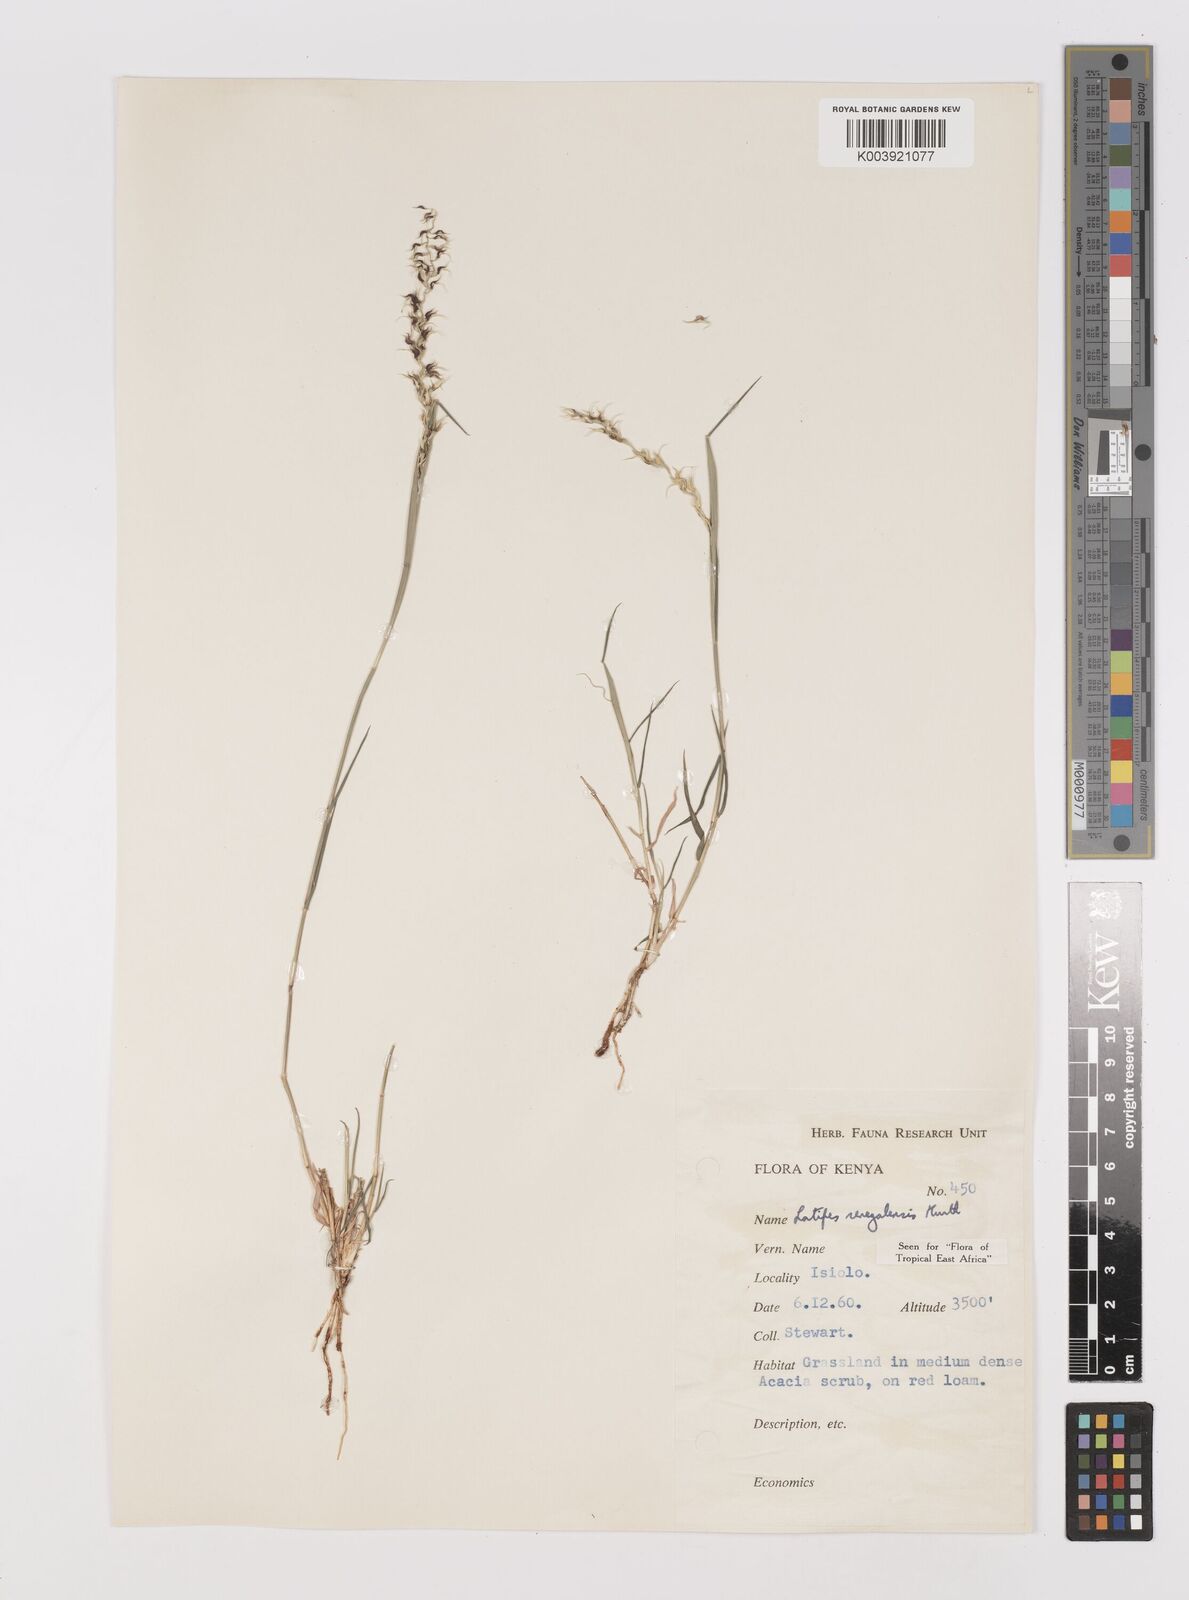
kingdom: Plantae
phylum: Tracheophyta
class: Liliopsida
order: Poales
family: Poaceae
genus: Leptothrium
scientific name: Leptothrium senegalense
